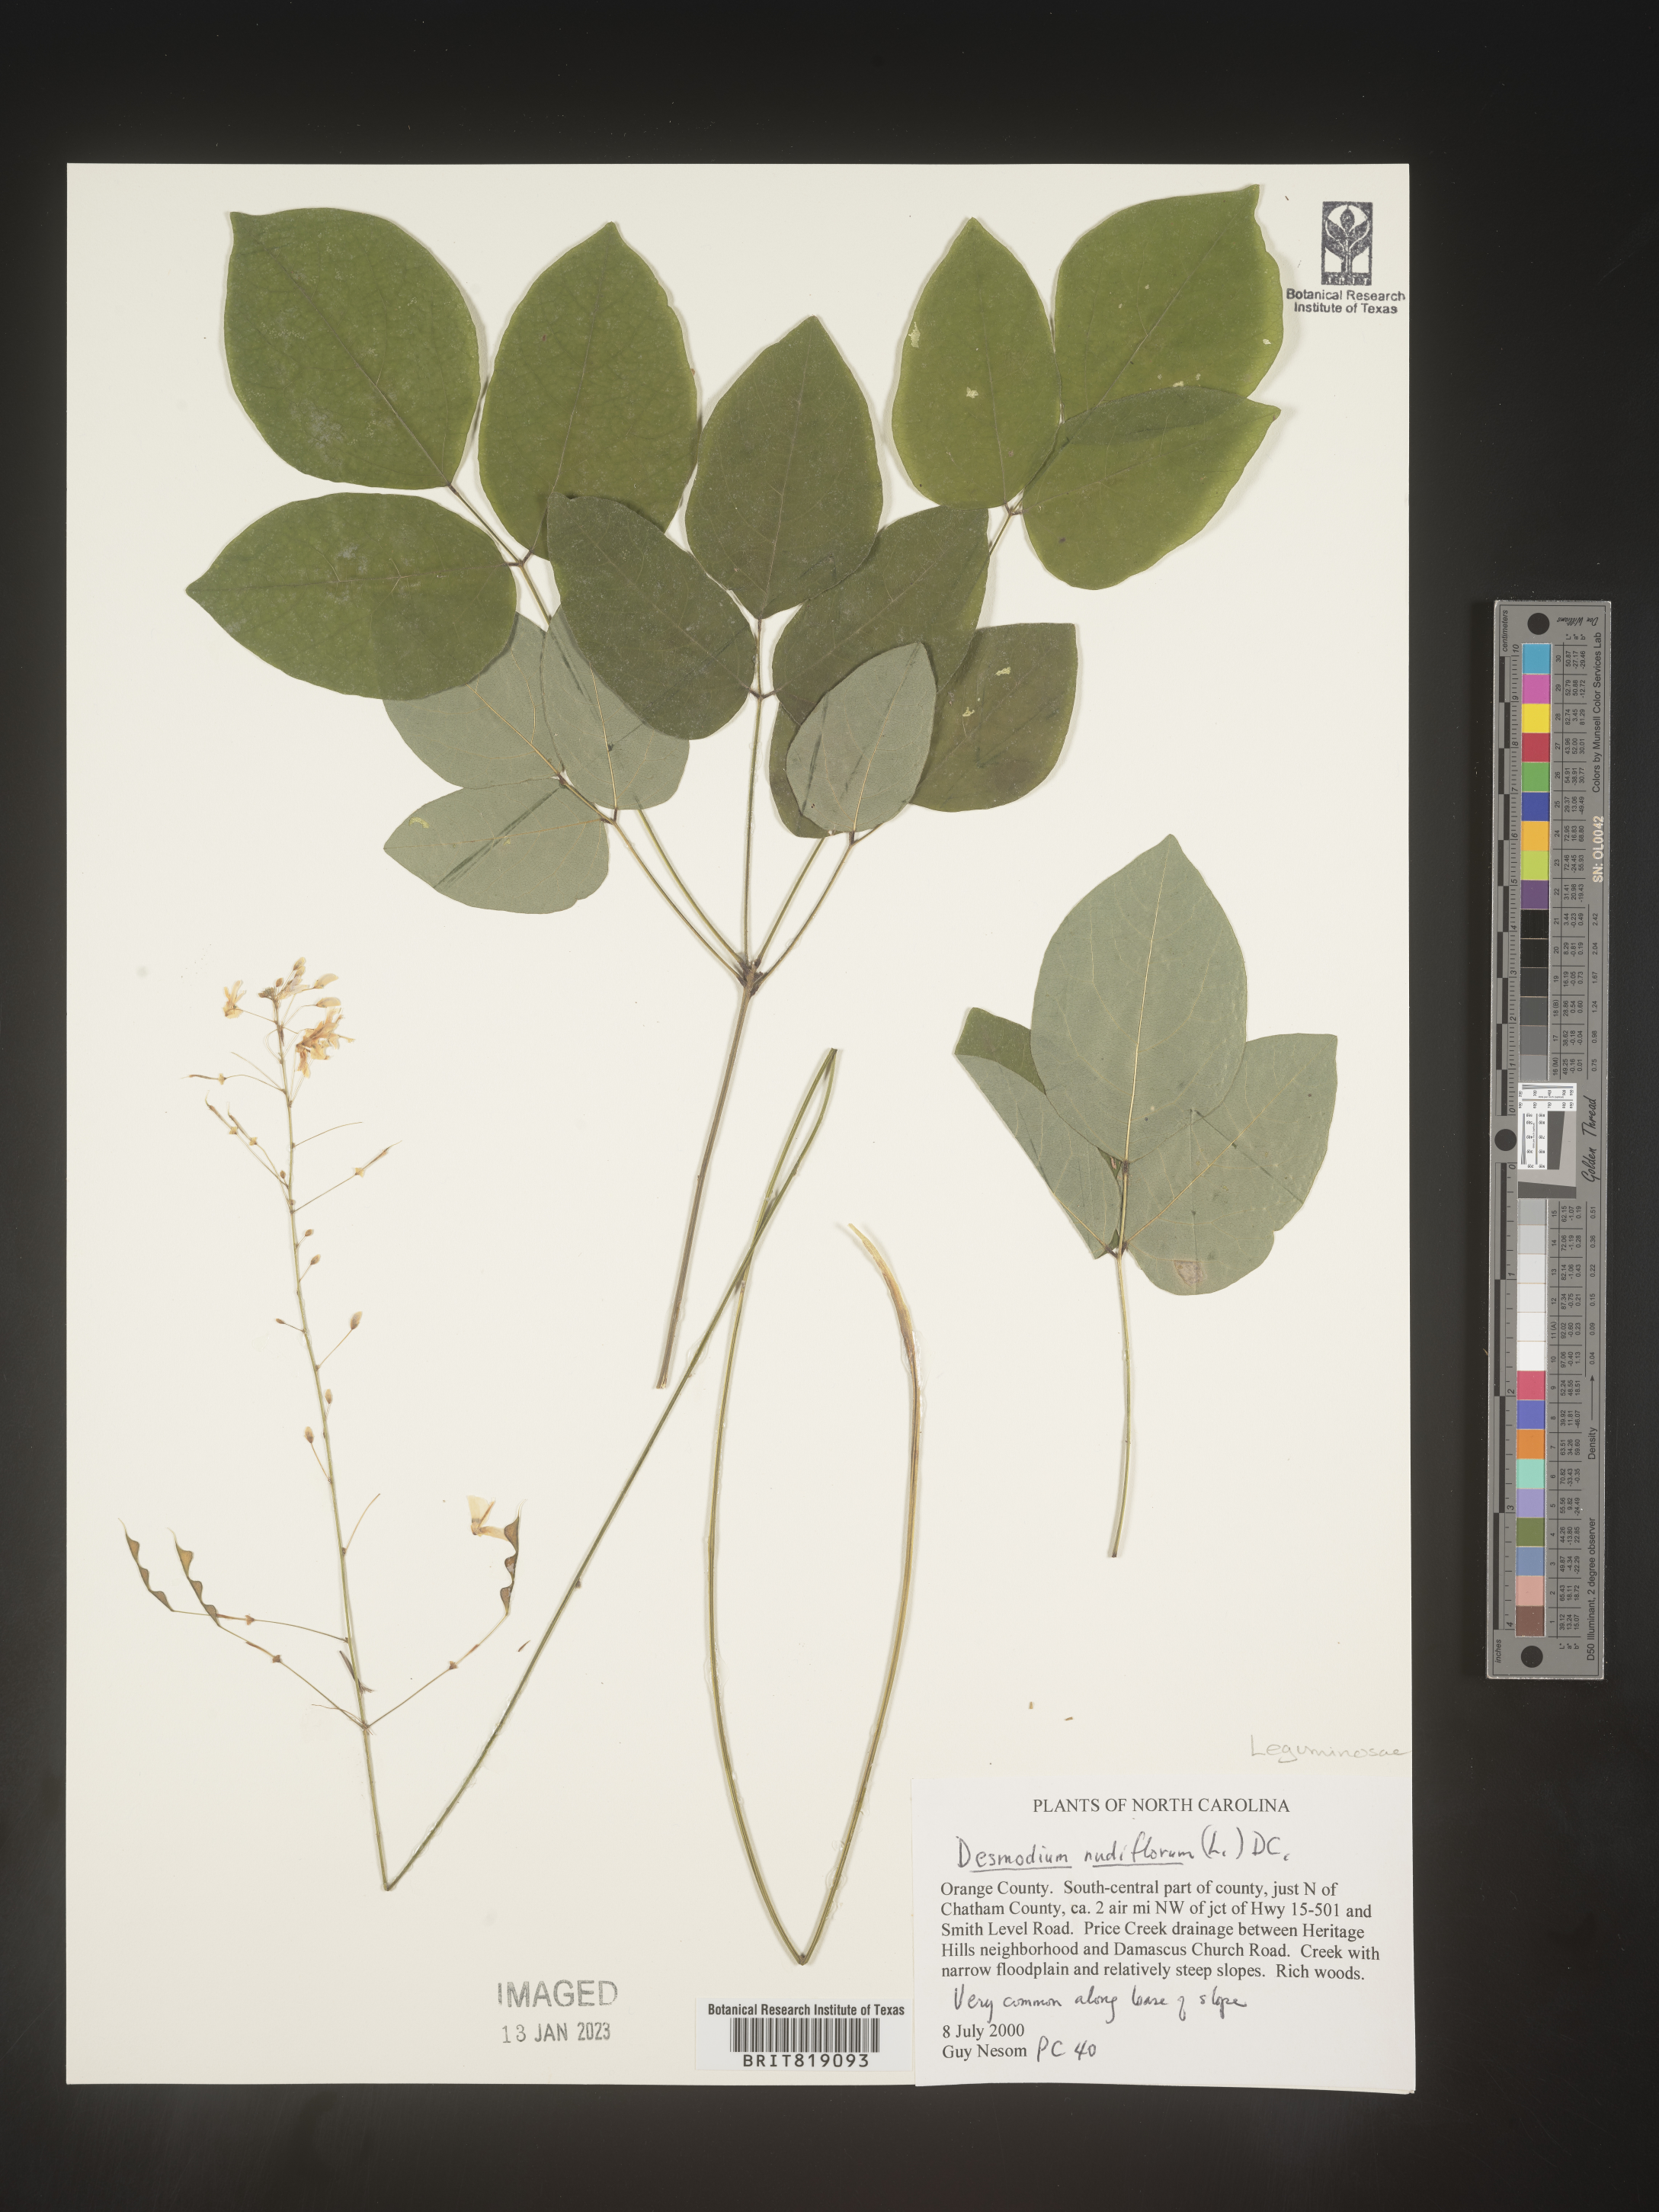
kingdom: Plantae
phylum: Tracheophyta
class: Magnoliopsida
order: Fabales
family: Fabaceae
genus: Hylodesmum
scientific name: Hylodesmum nudiflorum
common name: Bare-stemmed tick-trefoil
